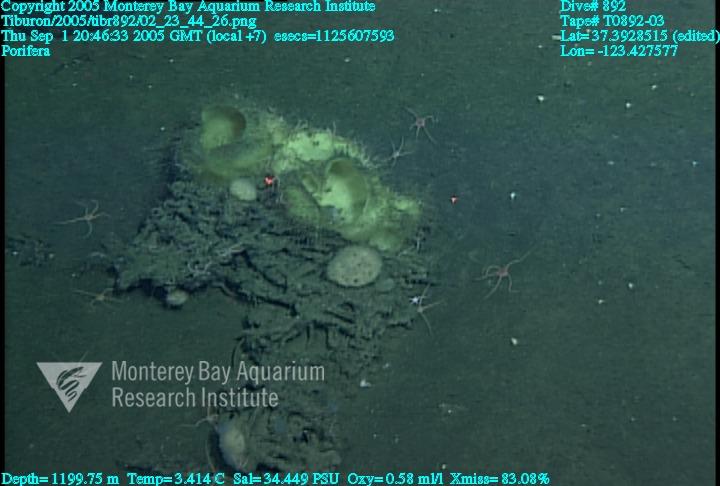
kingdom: Animalia
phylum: Porifera
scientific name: Porifera
